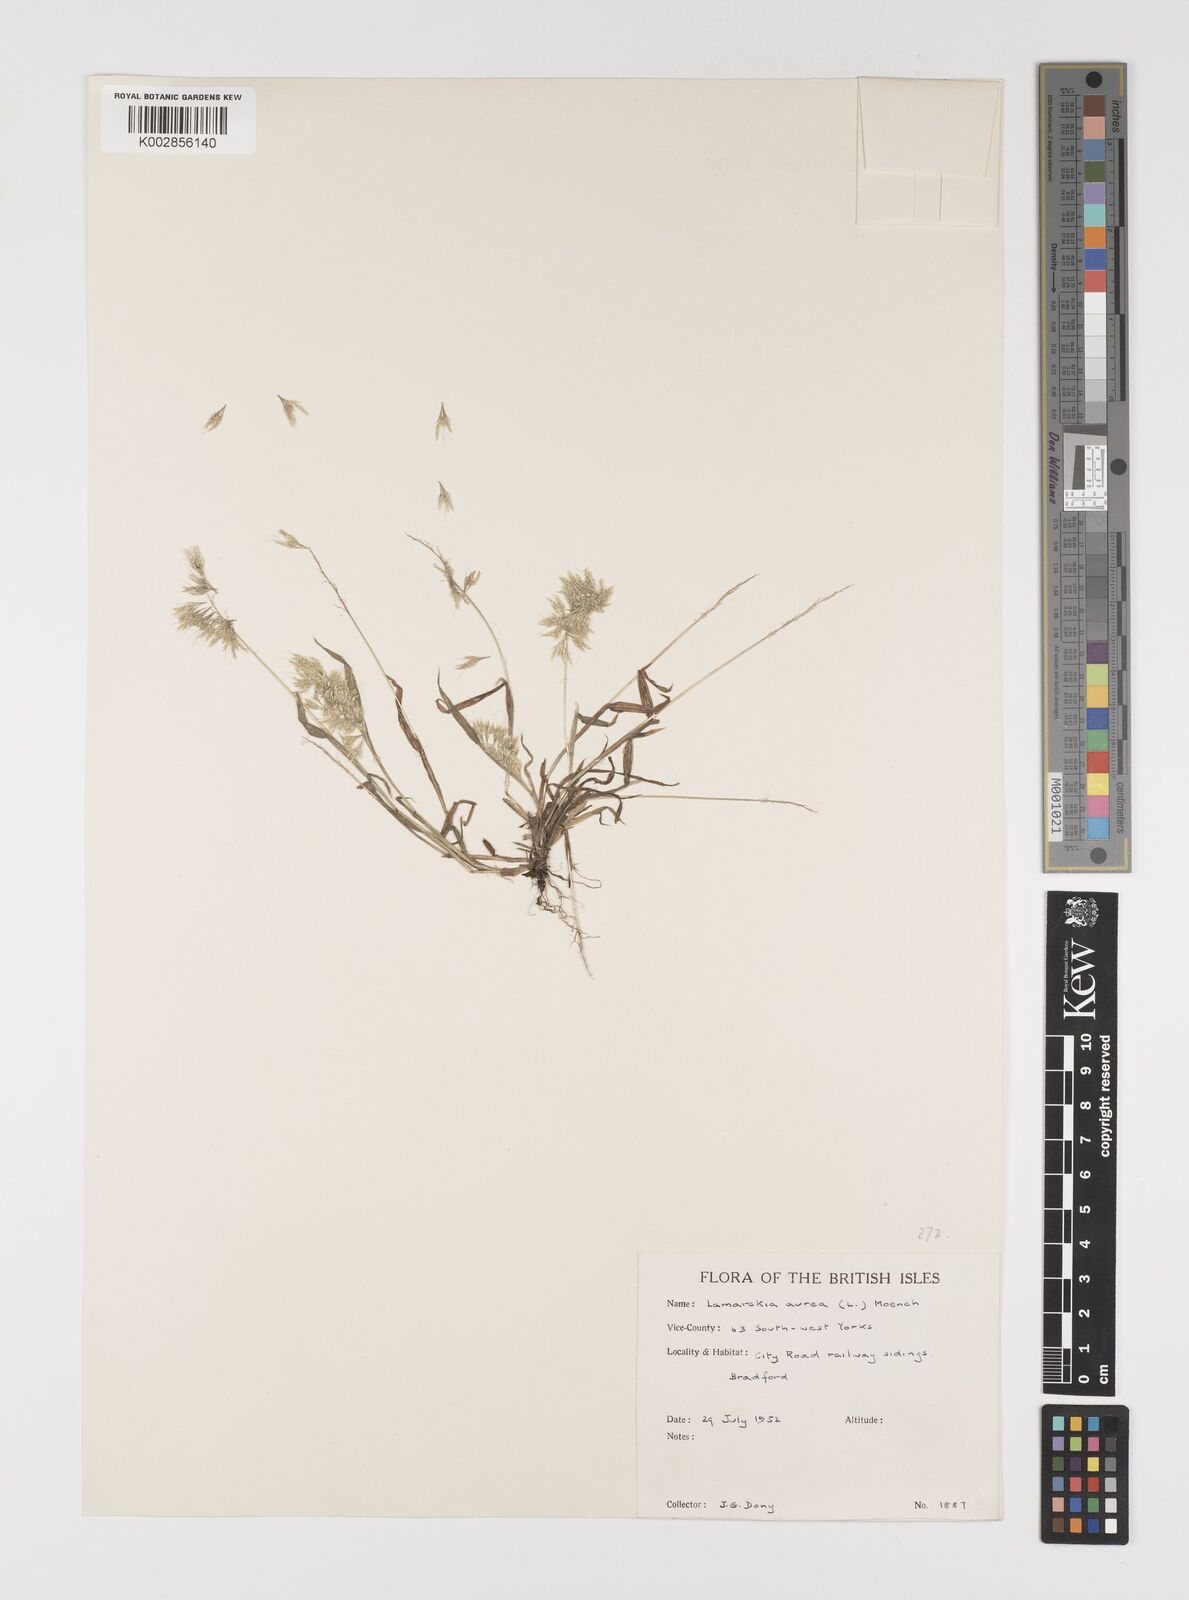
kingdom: Plantae
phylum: Tracheophyta
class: Liliopsida
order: Poales
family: Poaceae
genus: Lamarckia
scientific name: Lamarckia aurea
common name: Golden dog's-tail
